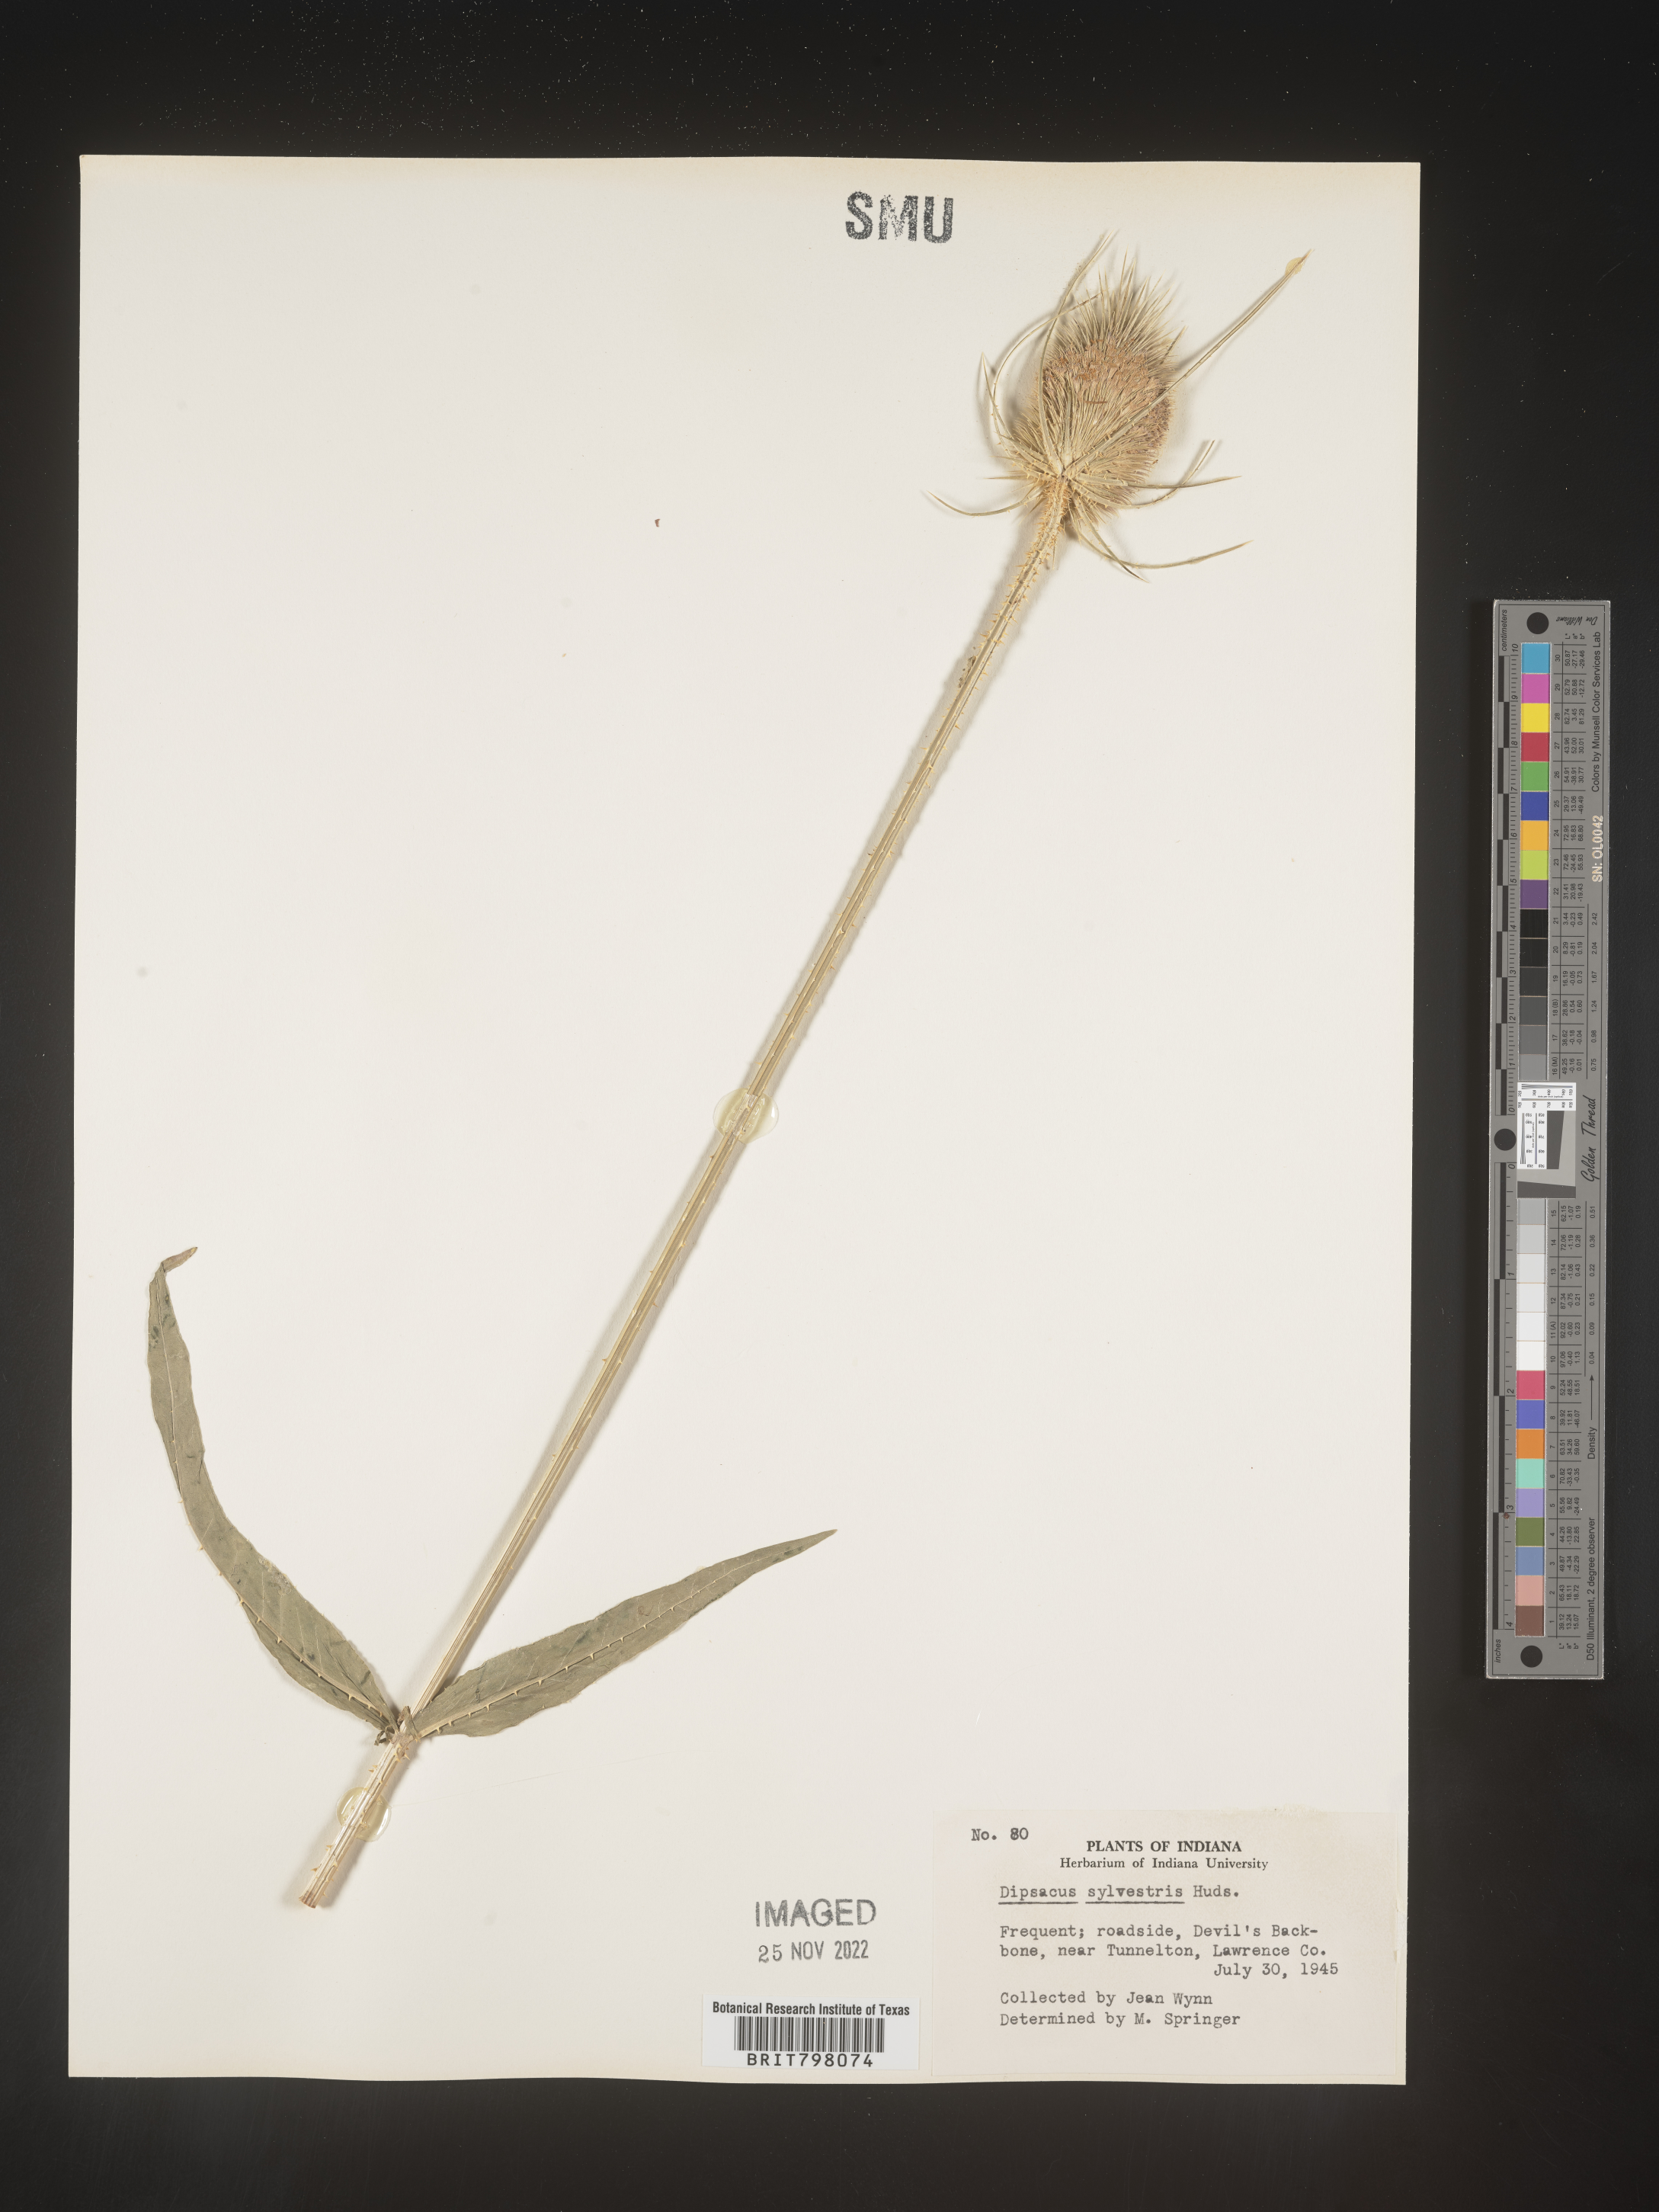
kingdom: Plantae
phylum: Tracheophyta
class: Magnoliopsida
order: Dipsacales
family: Caprifoliaceae
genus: Dipsacus
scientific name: Dipsacus fullonum
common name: Teasel
